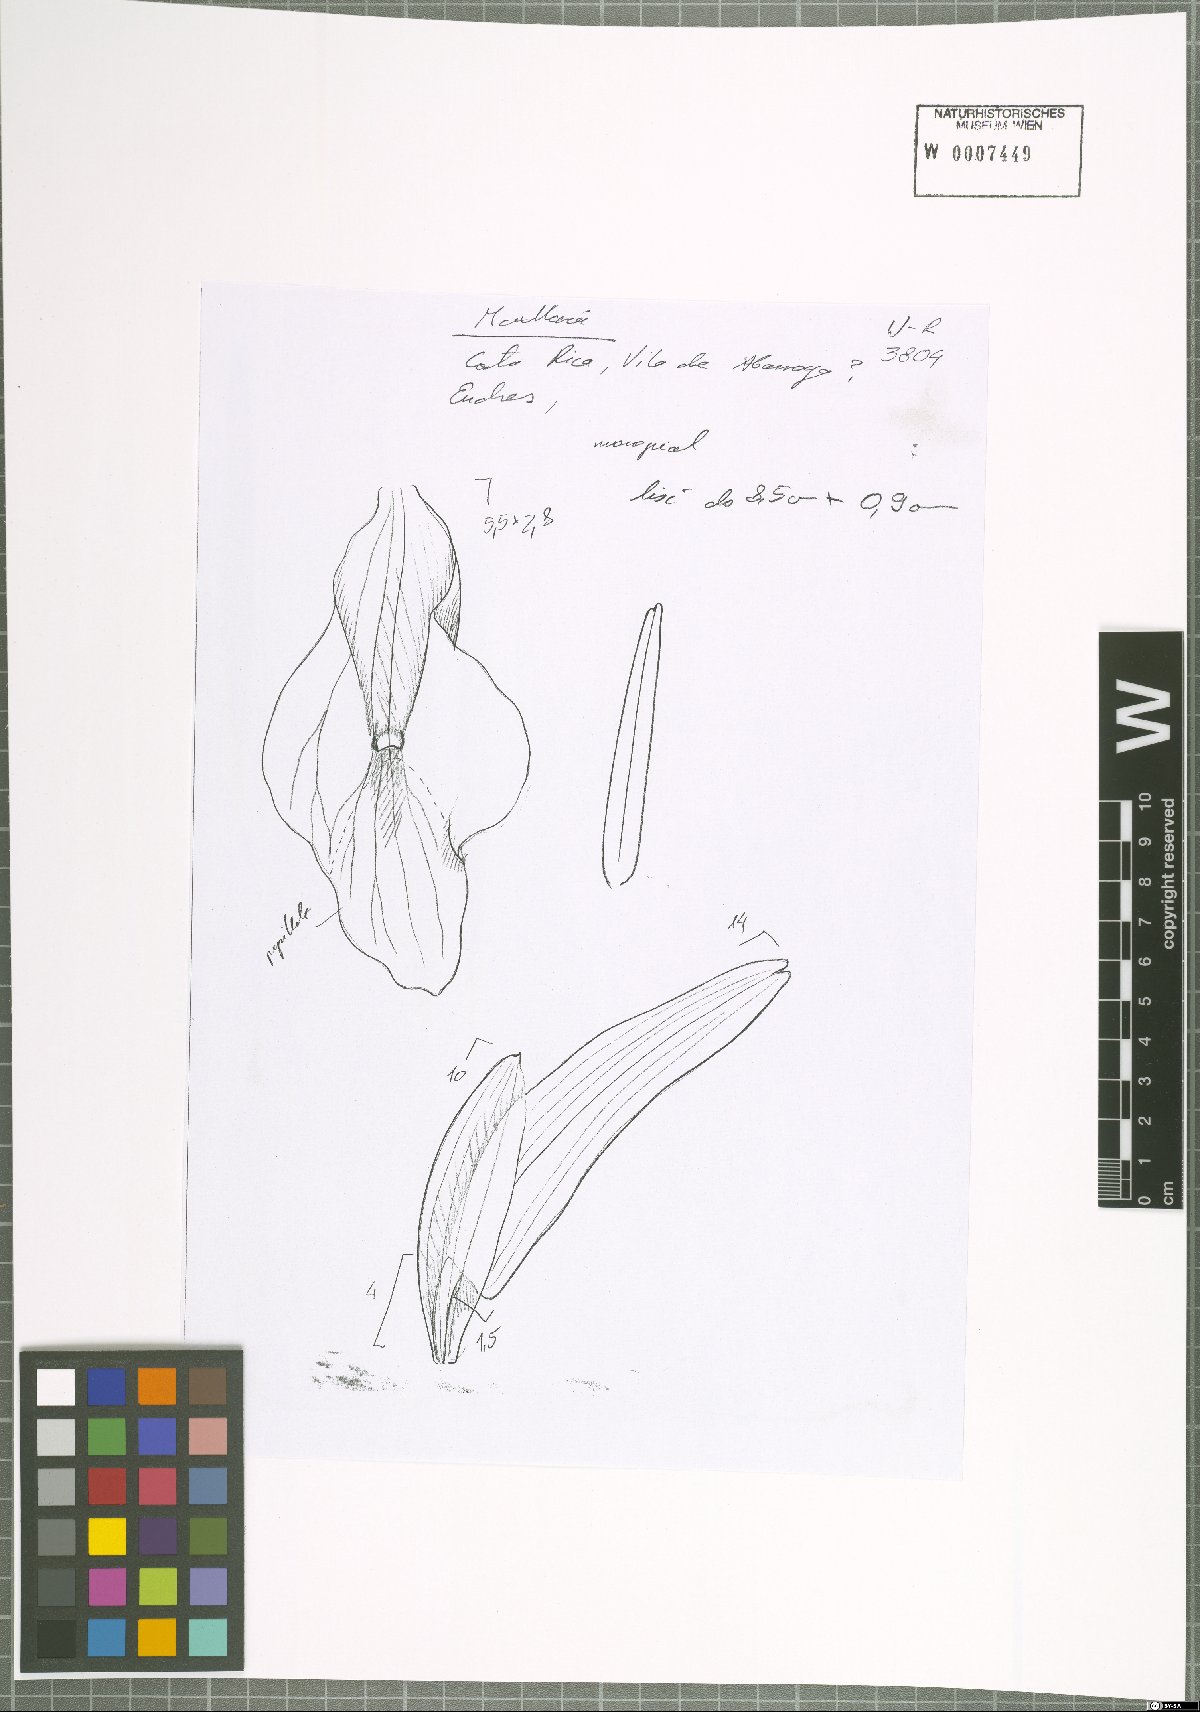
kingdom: Plantae
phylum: Tracheophyta
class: Liliopsida
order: Asparagales
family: Orchidaceae
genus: Maxillaria
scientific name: Maxillaria
